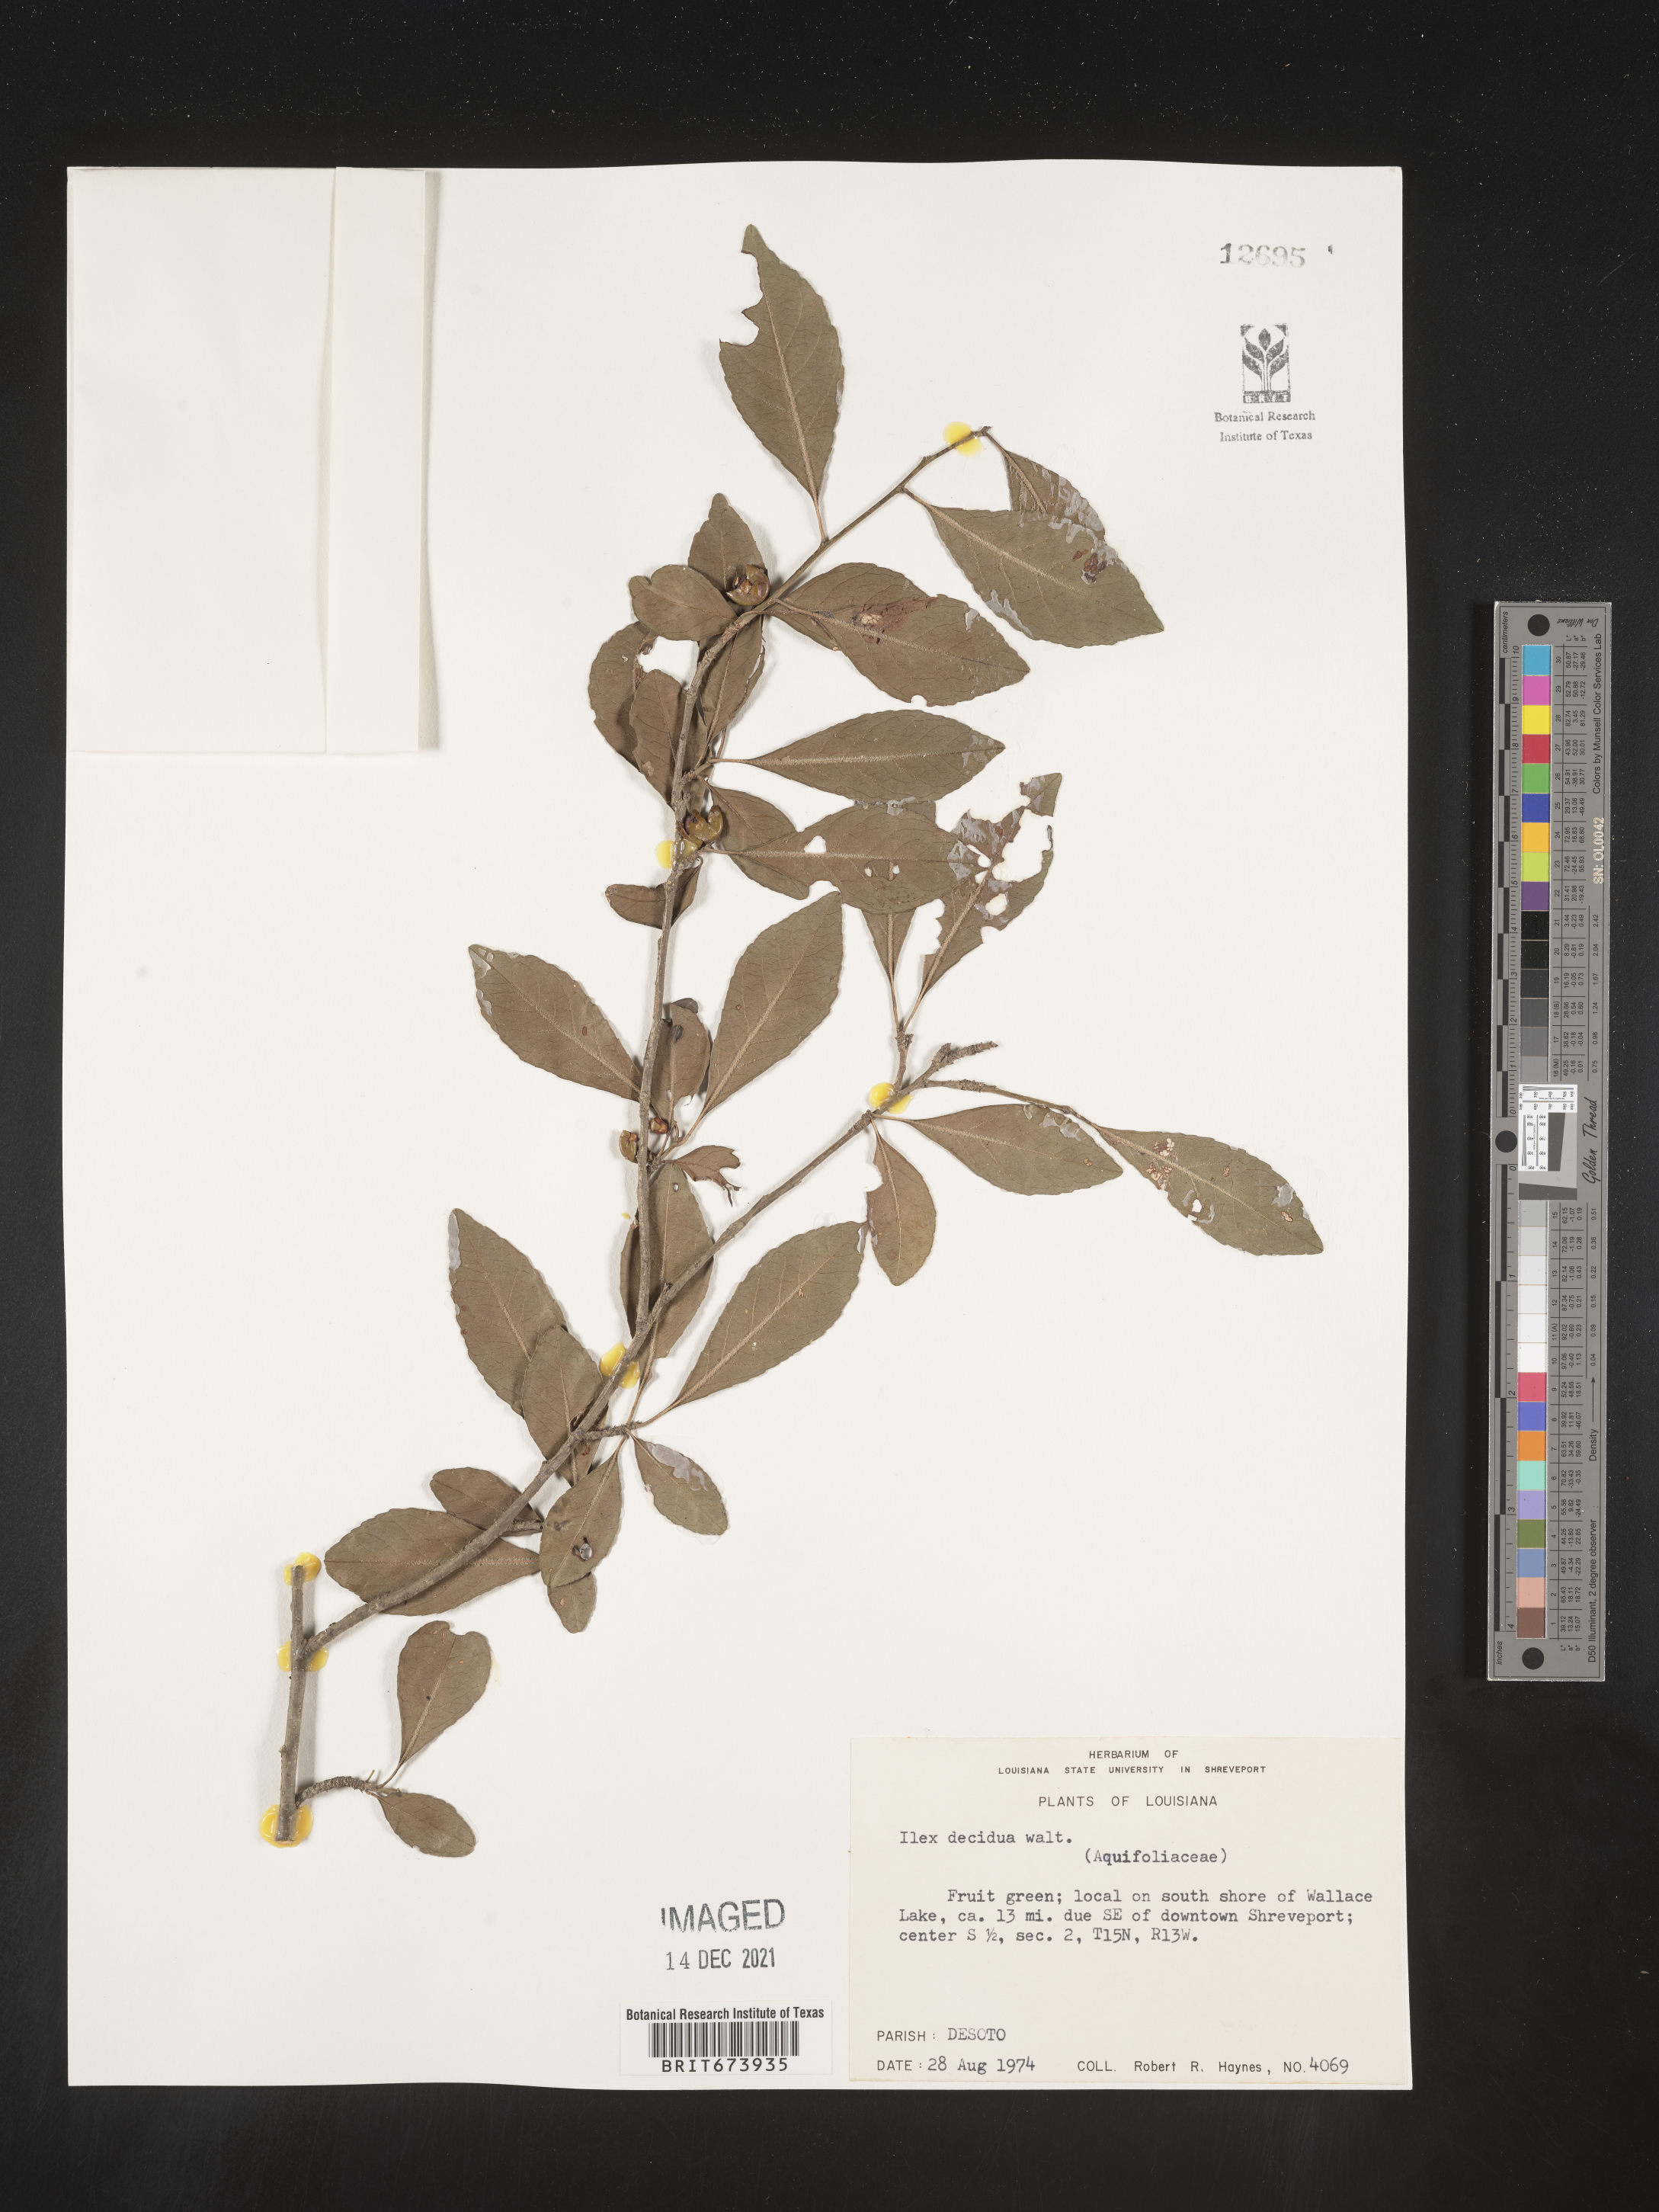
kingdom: Plantae
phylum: Tracheophyta
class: Magnoliopsida
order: Aquifoliales
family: Aquifoliaceae
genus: Ilex
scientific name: Ilex decidua
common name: Possum-haw
